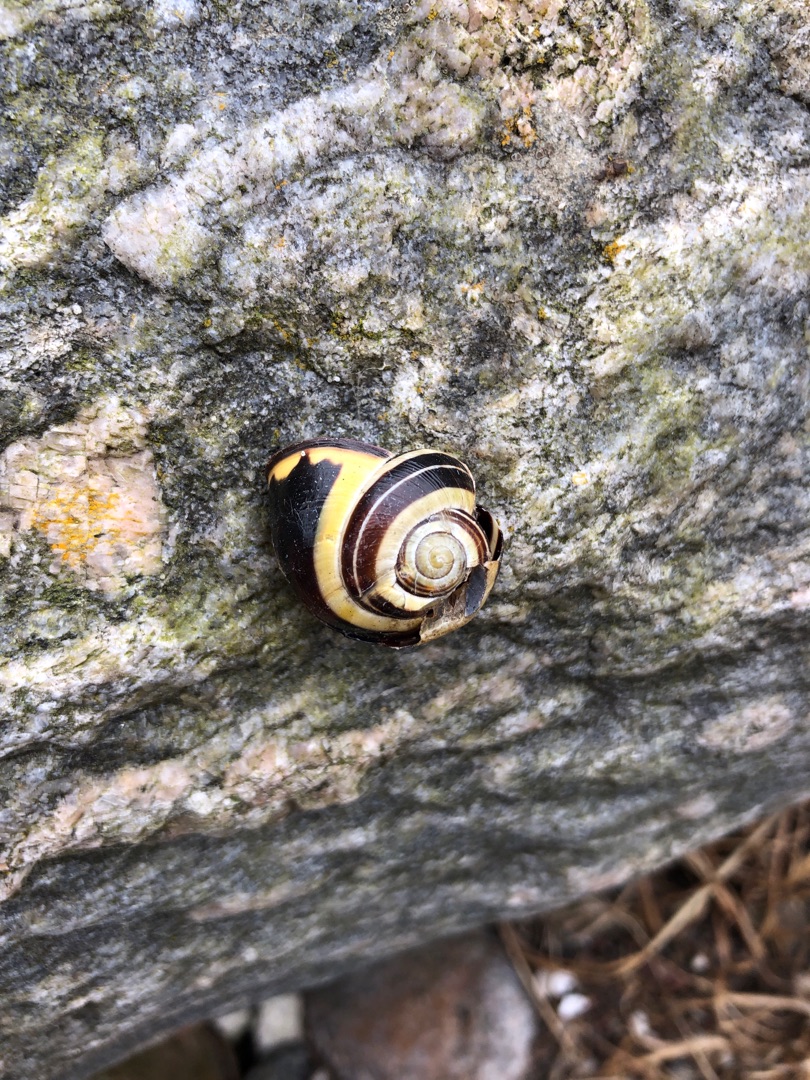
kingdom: Animalia
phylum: Mollusca
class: Gastropoda
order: Stylommatophora
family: Helicidae
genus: Cepaea
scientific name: Cepaea nemoralis
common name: Lundsnegl
